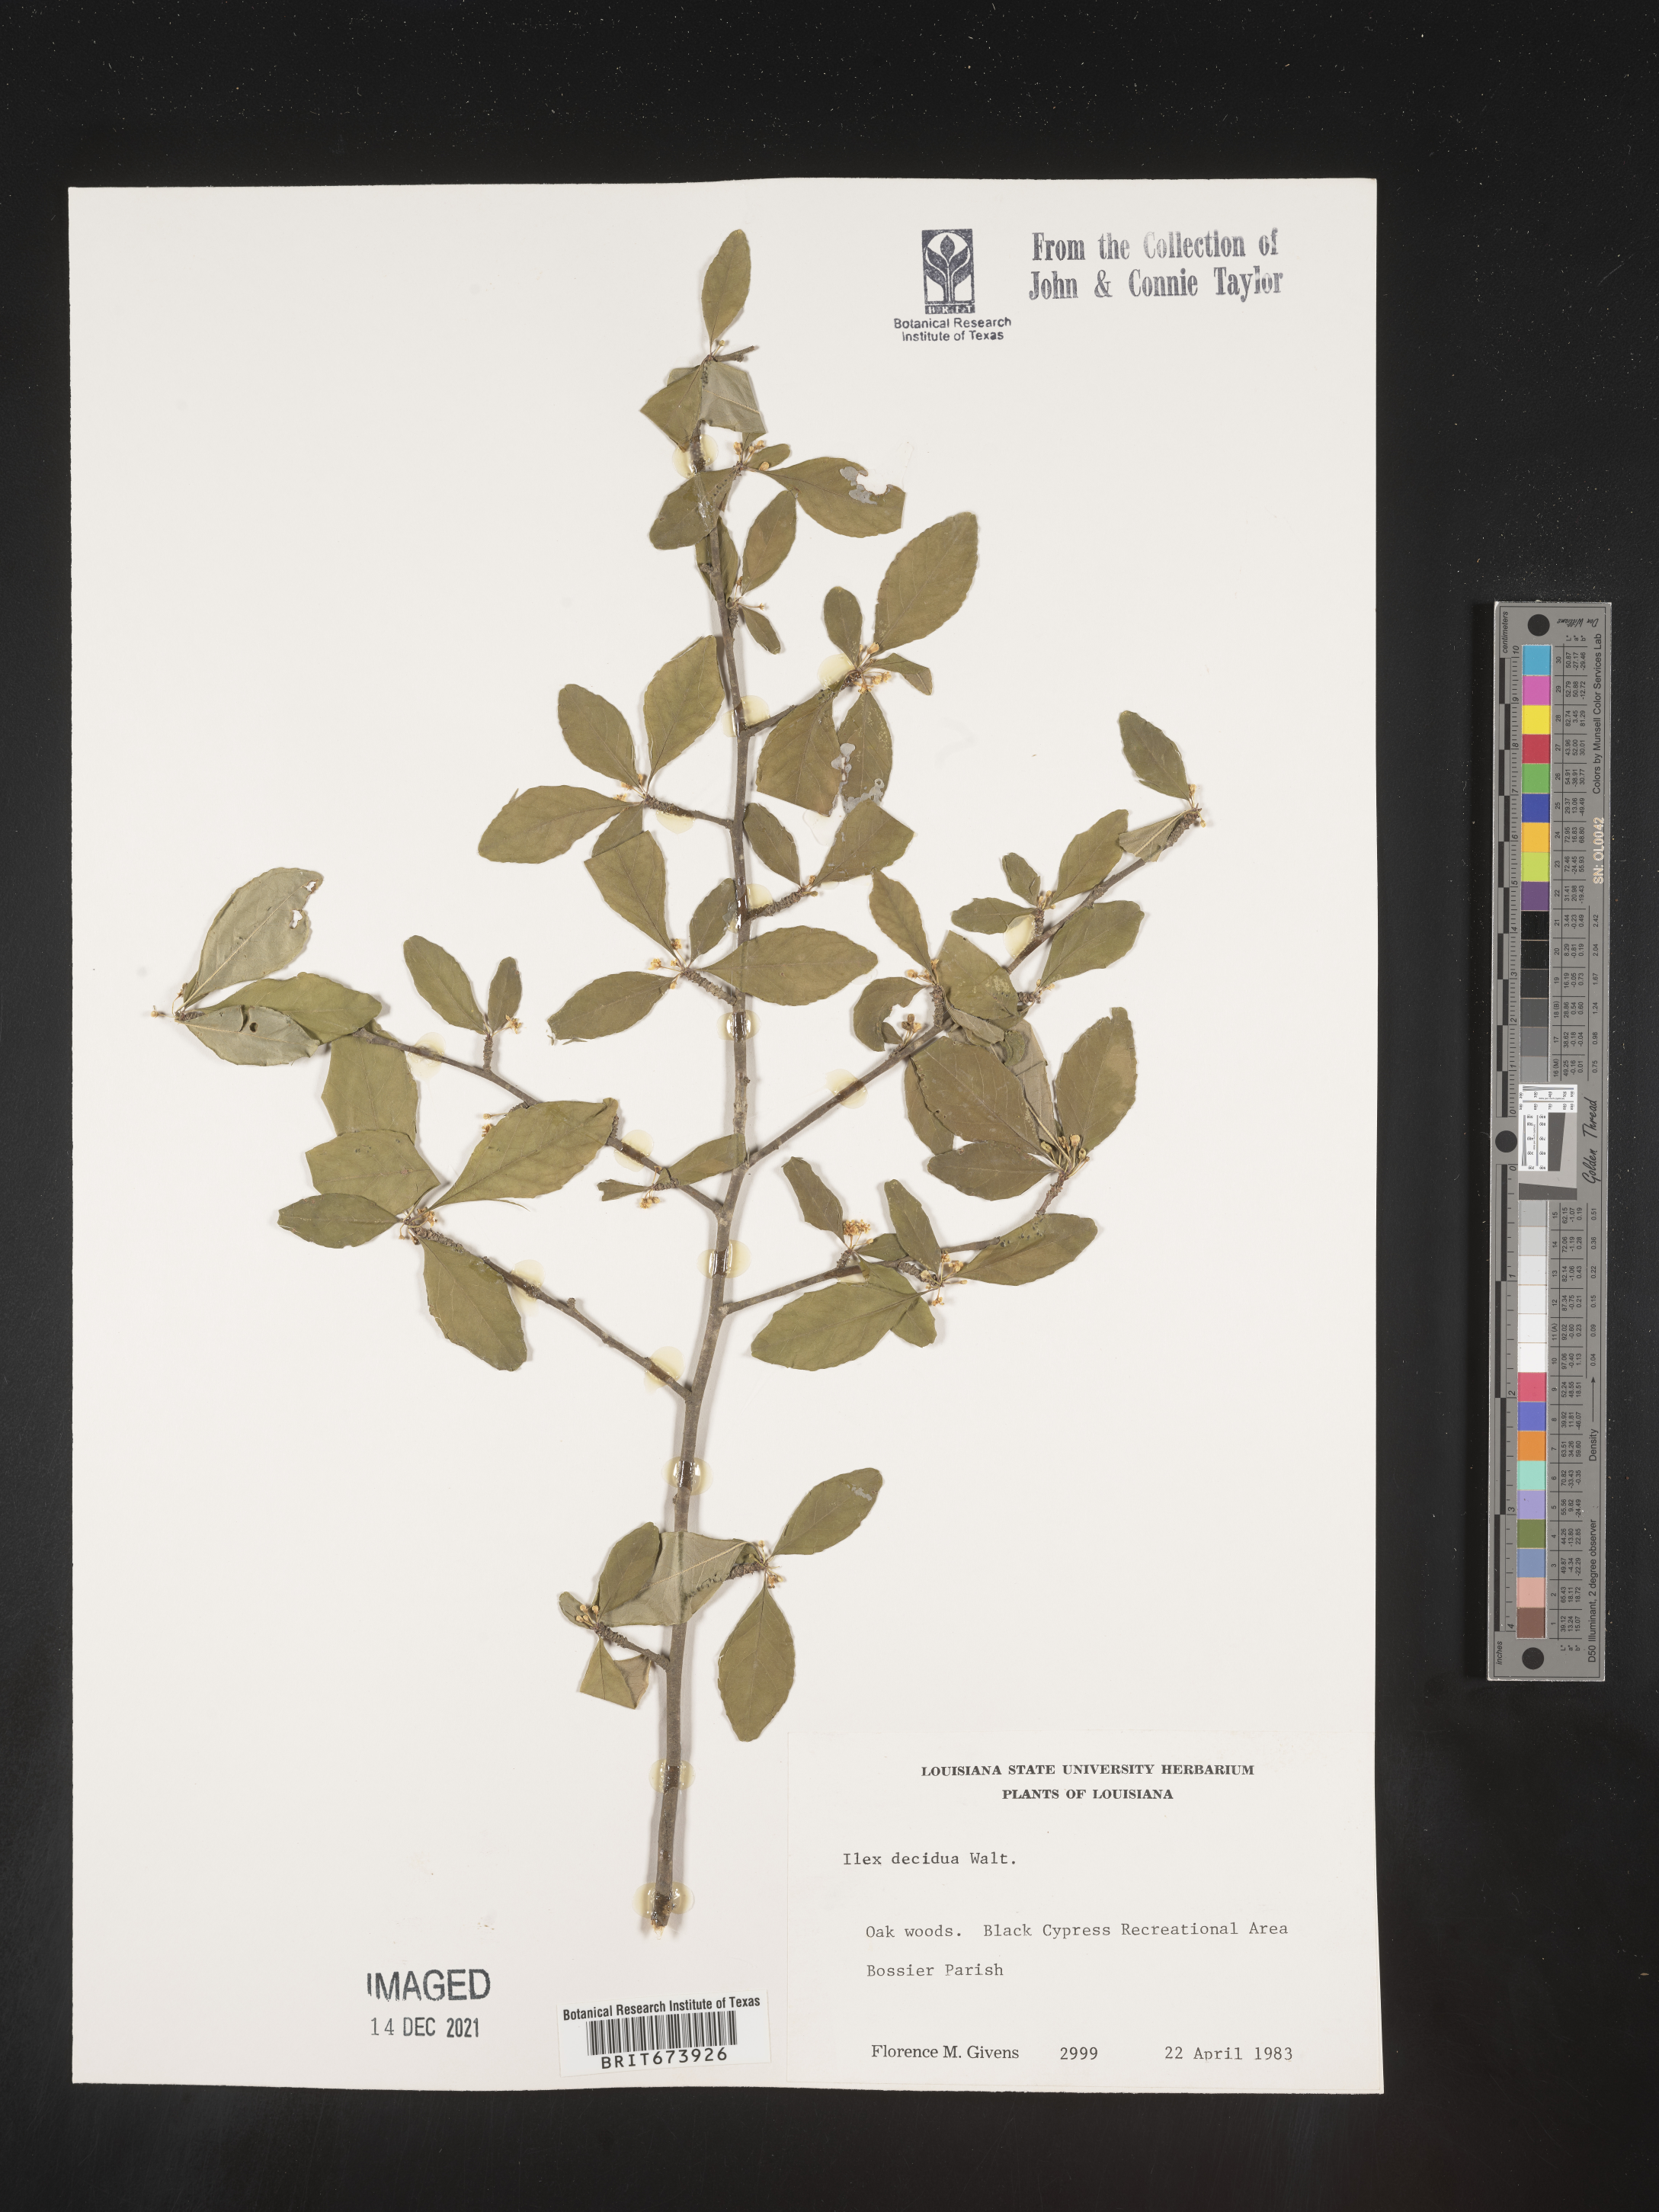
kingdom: Plantae
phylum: Tracheophyta
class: Magnoliopsida
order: Aquifoliales
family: Aquifoliaceae
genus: Ilex
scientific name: Ilex decidua
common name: Possum-haw
